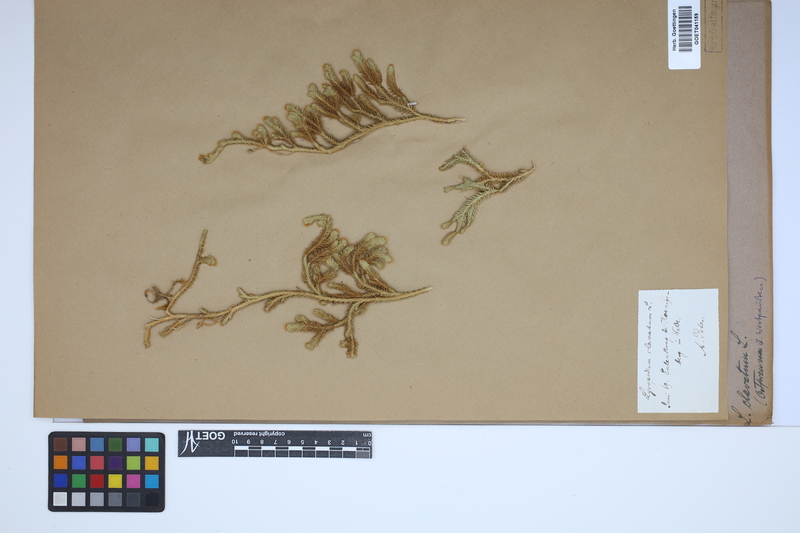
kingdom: Plantae
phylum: Tracheophyta
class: Lycopodiopsida
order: Lycopodiales
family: Lycopodiaceae
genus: Lycopodium
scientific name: Lycopodium clavatum
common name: Stag's-horn clubmoss
